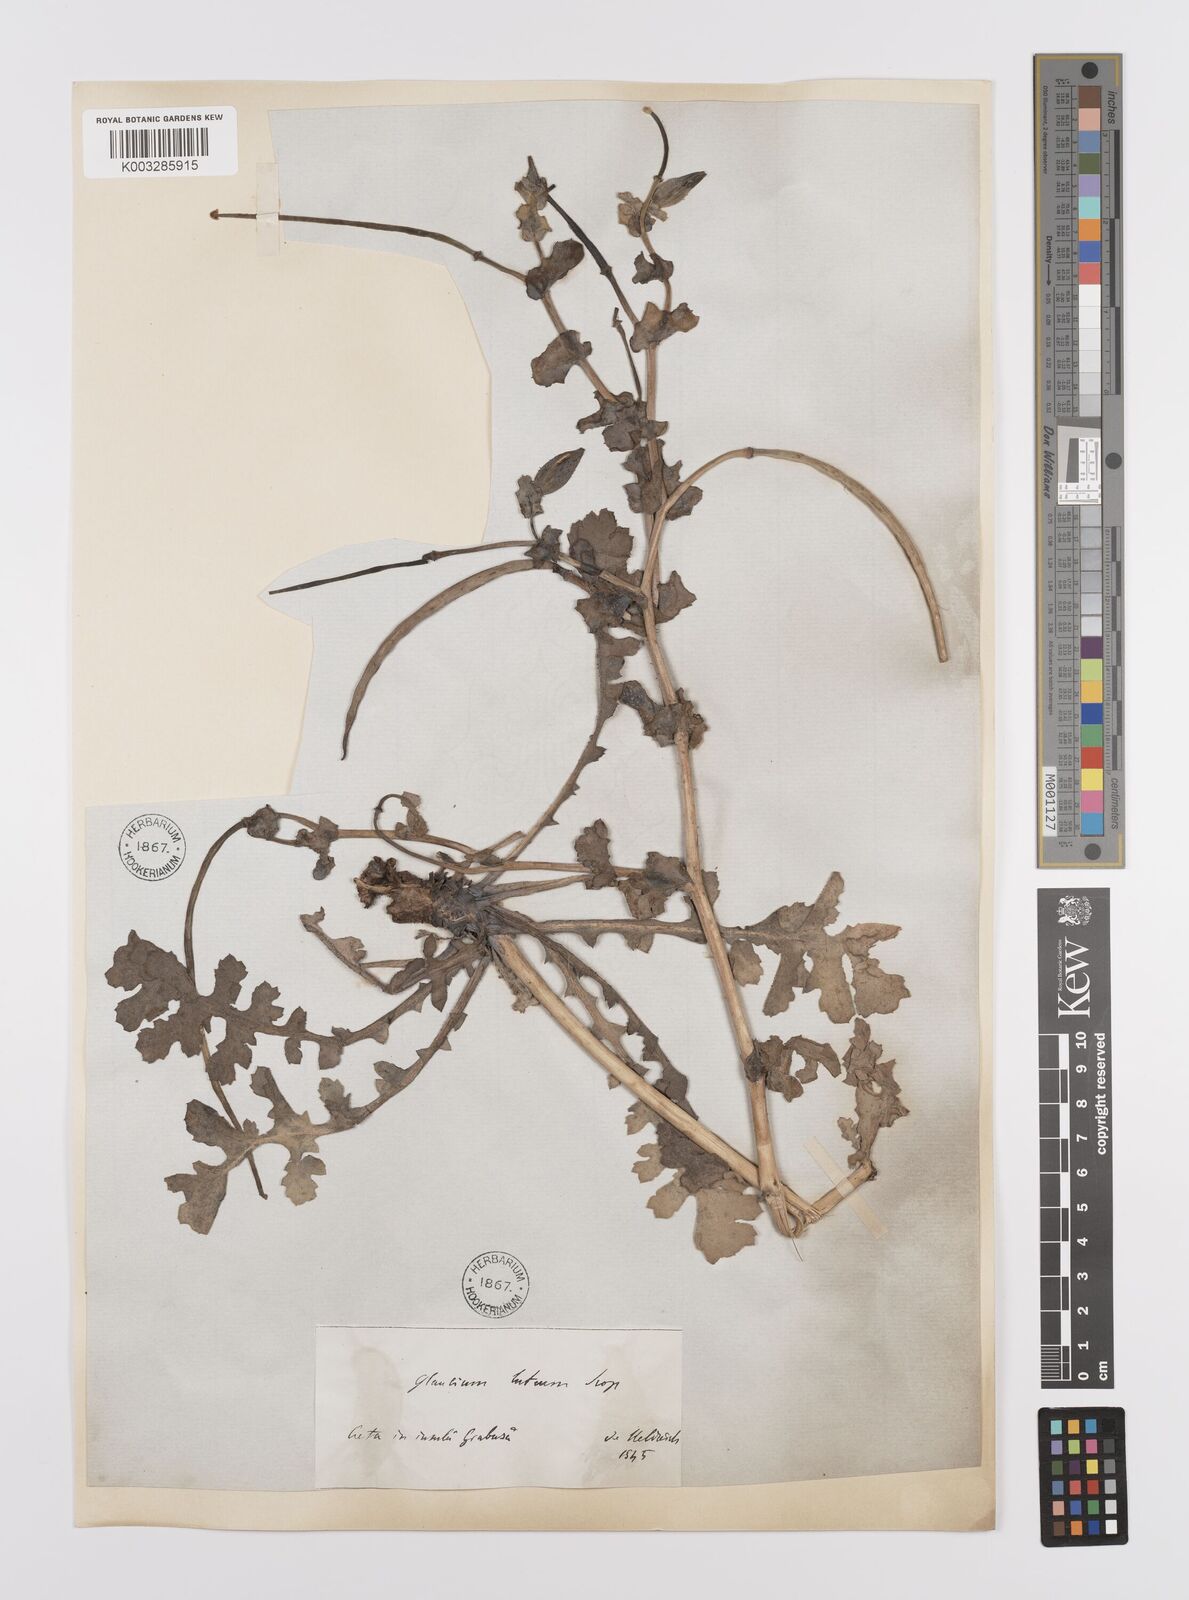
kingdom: Plantae
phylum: Tracheophyta
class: Magnoliopsida
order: Ranunculales
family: Papaveraceae
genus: Glaucium
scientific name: Glaucium flavum
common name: Yellow horned-poppy
